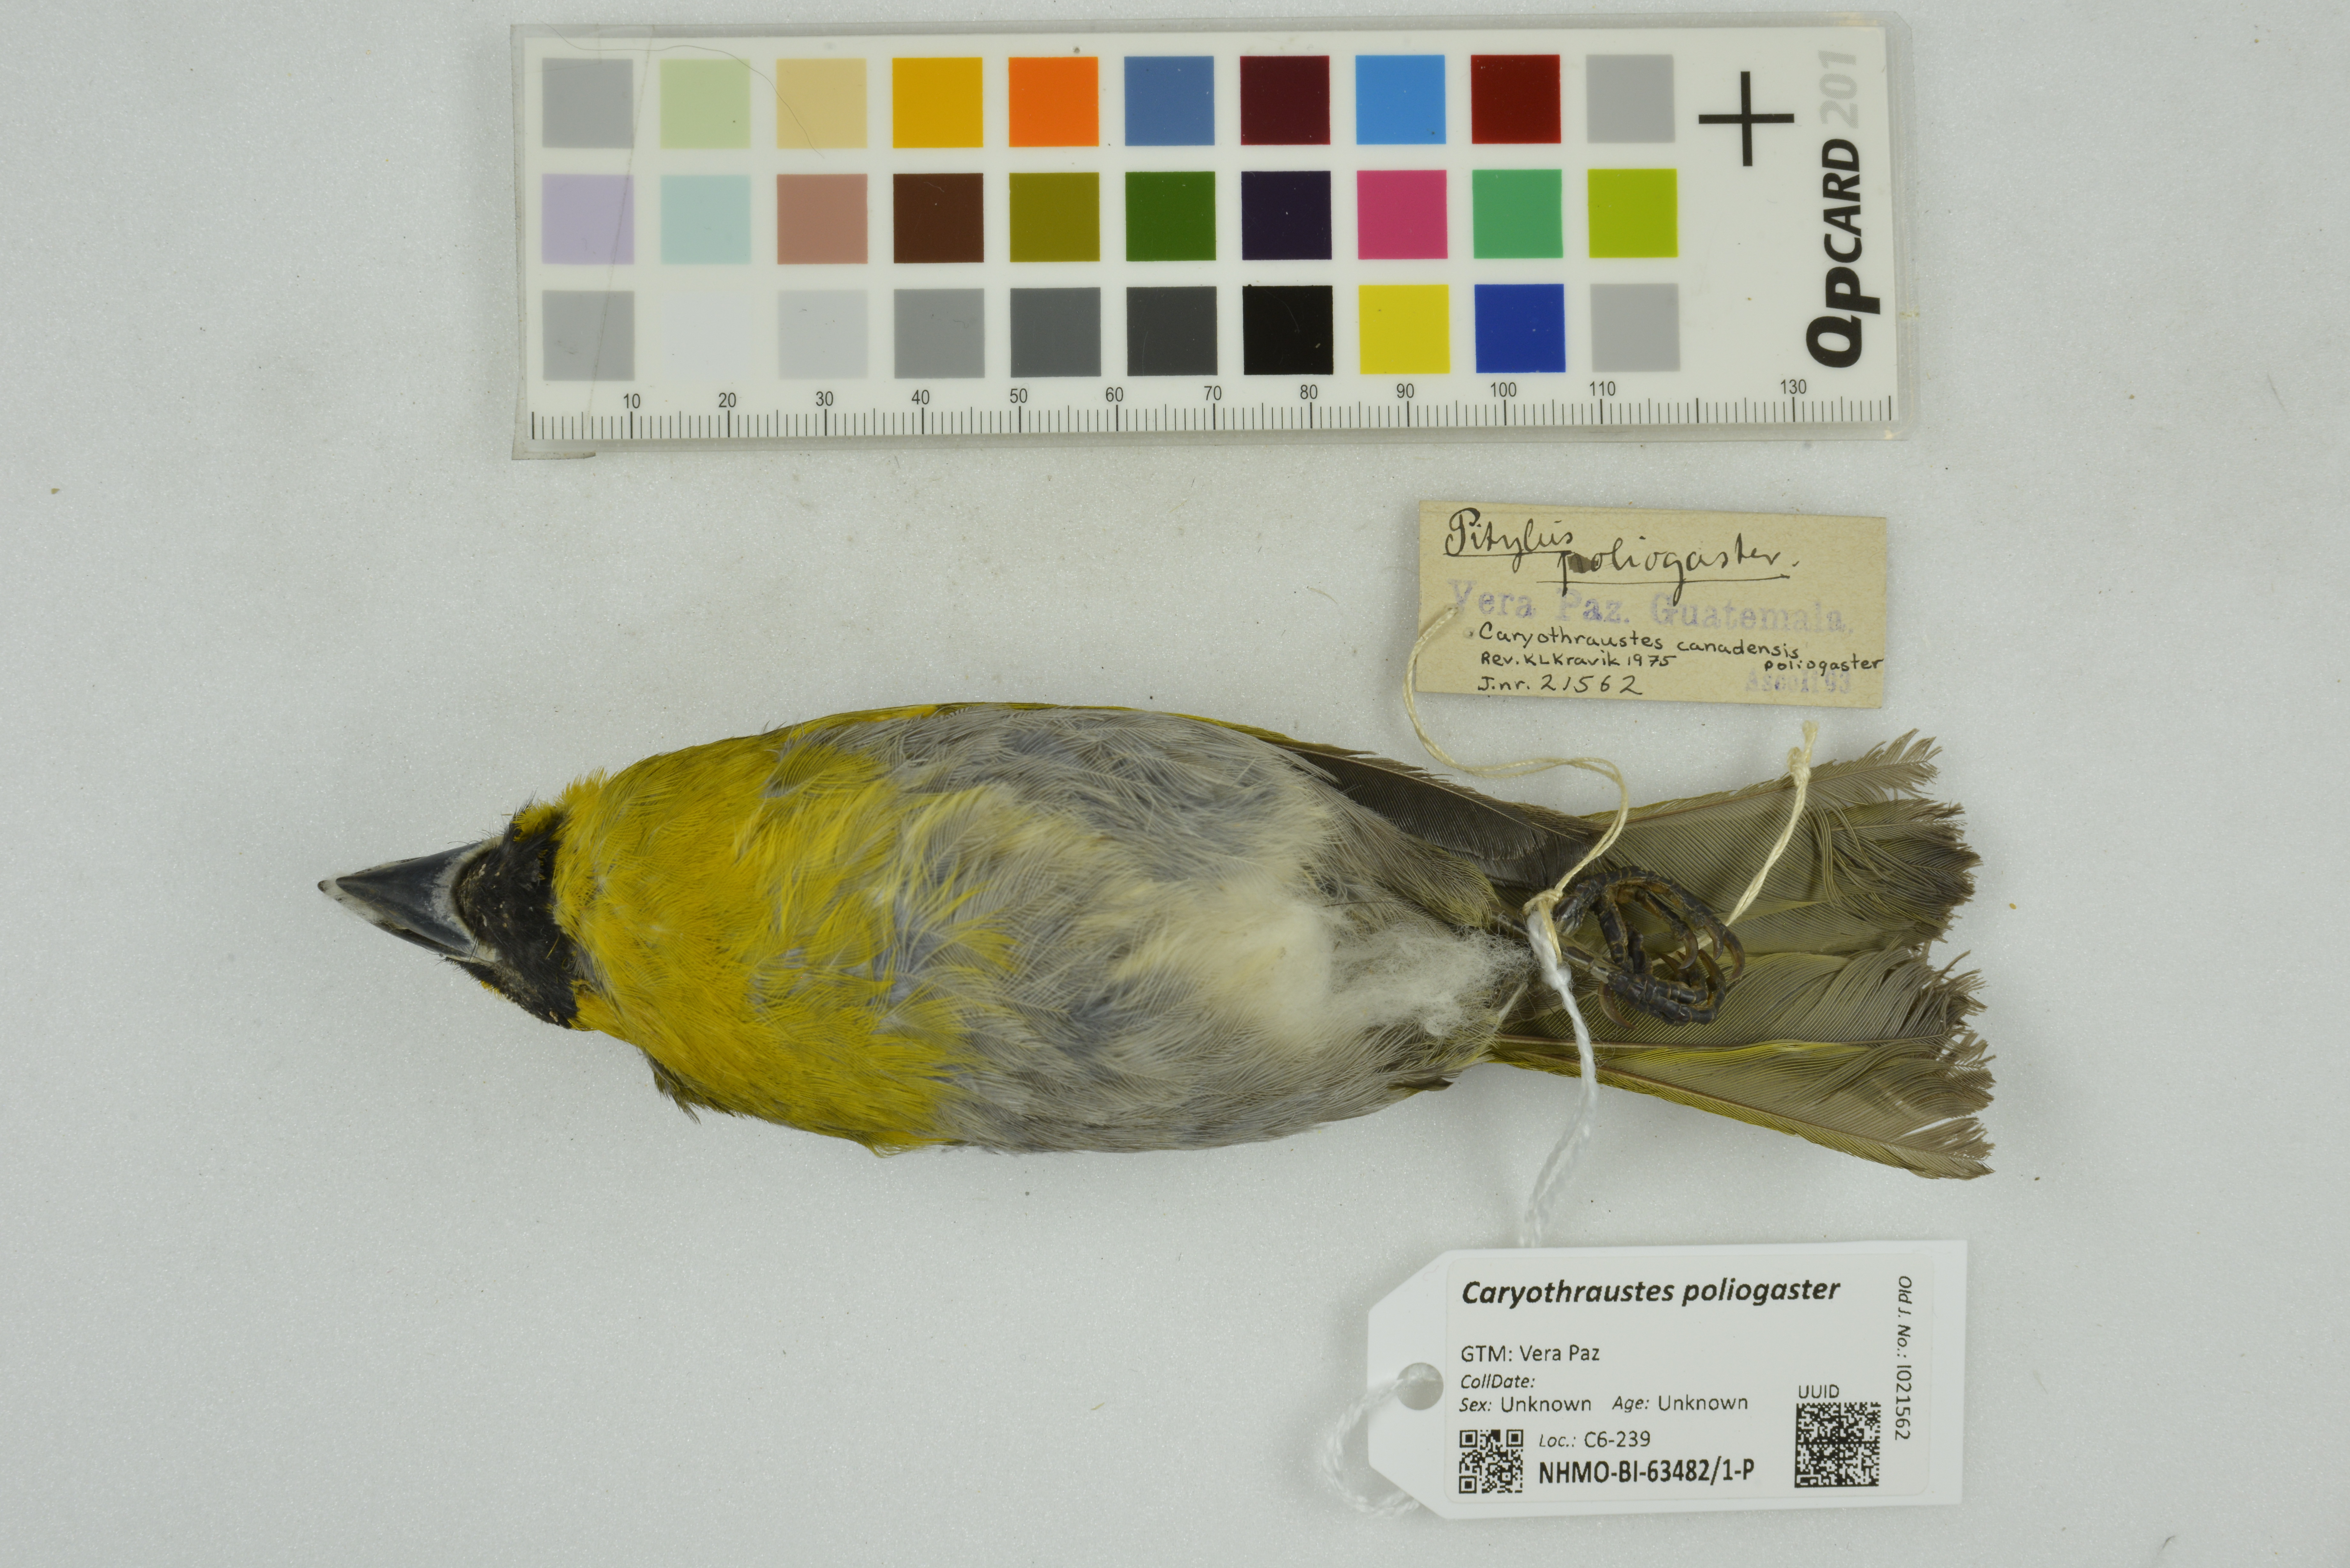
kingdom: Animalia
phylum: Chordata
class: Aves
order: Passeriformes
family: Cardinalidae
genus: Caryothraustes
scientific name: Caryothraustes poliogaster
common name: Black-faced grosbeak
